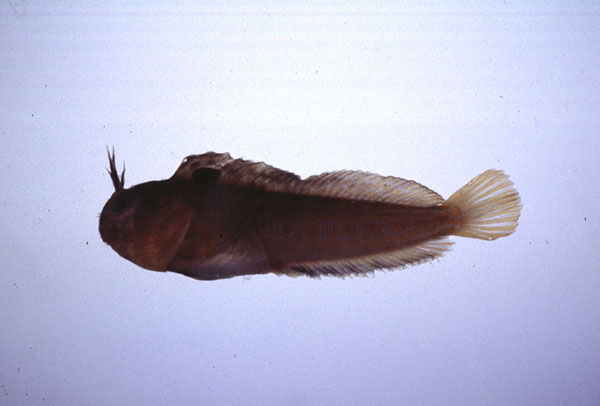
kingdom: Animalia
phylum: Chordata
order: Perciformes
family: Blenniidae
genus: Chalaroderma
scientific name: Chalaroderma ocellata
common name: Two-eyed blenny
